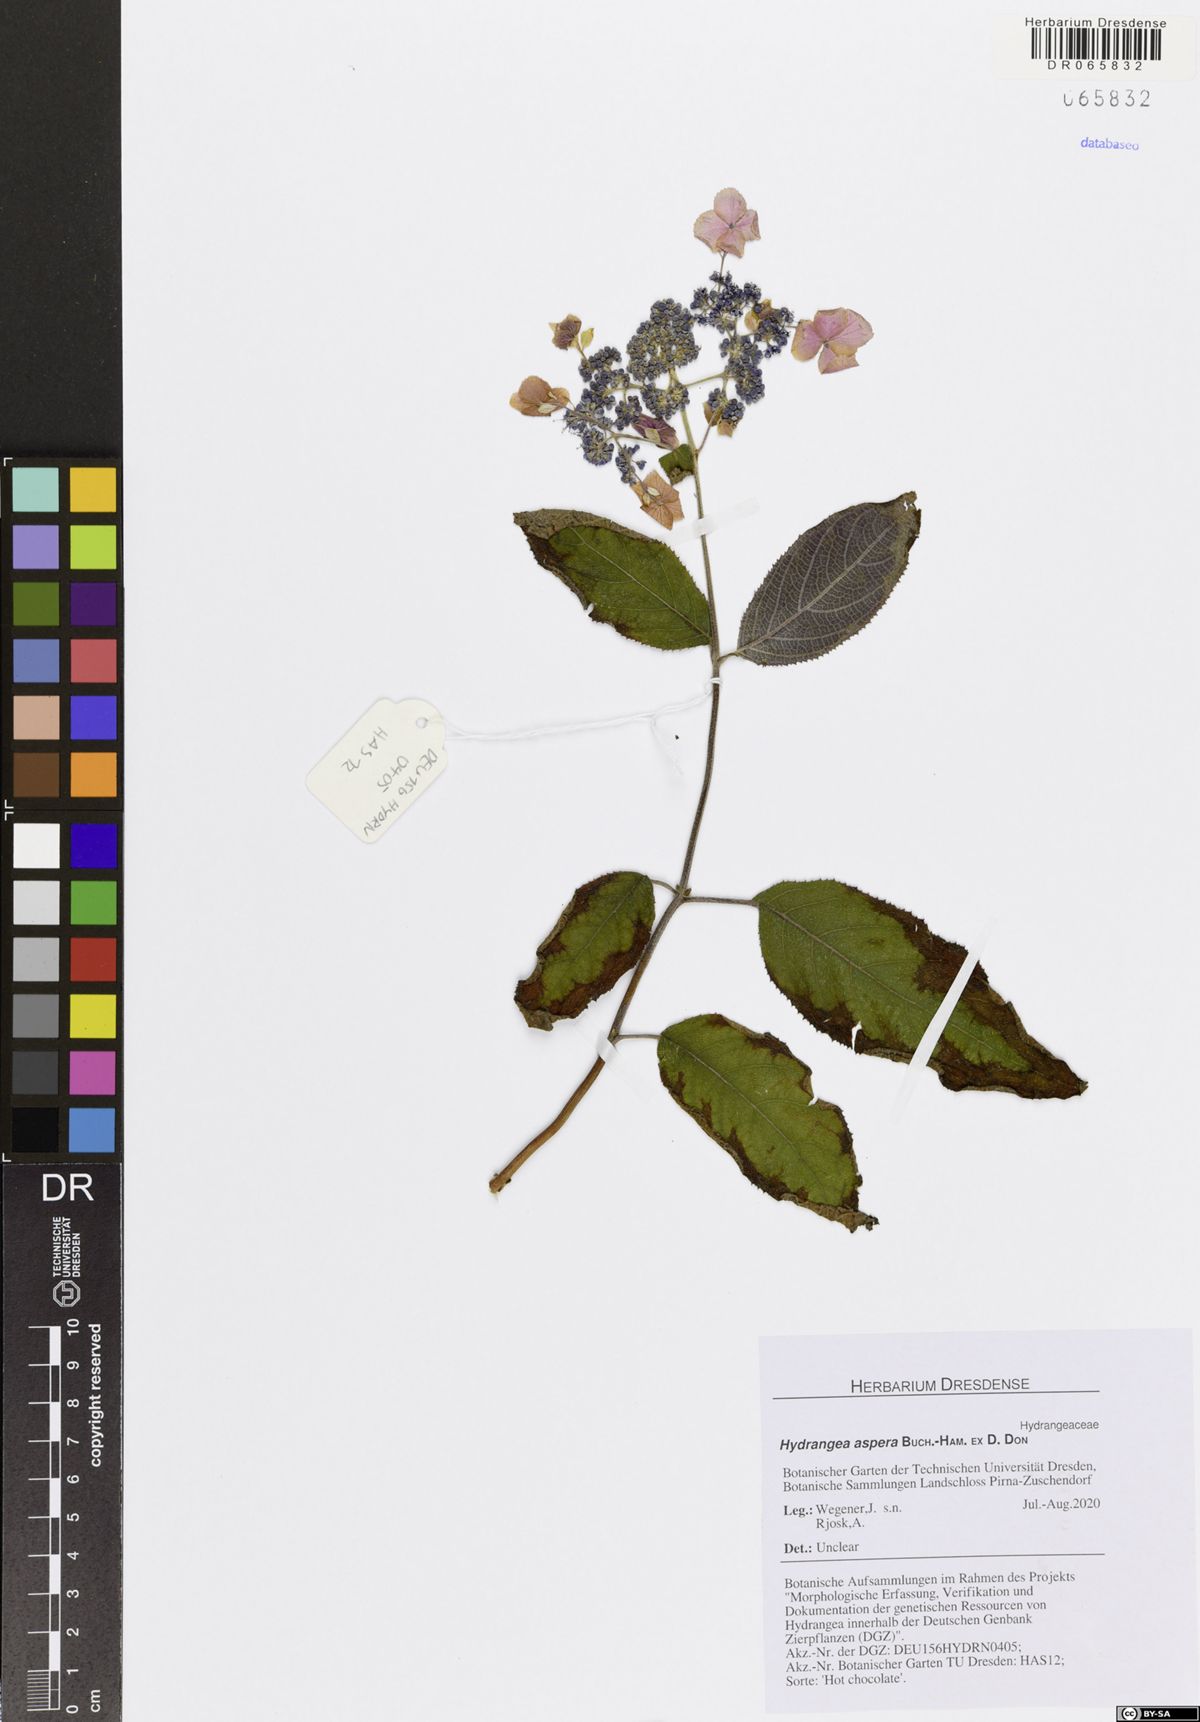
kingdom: Plantae
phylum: Tracheophyta
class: Magnoliopsida
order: Cornales
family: Hydrangeaceae
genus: Hydrangea
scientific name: Hydrangea aspera
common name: Rough-leaf hydrangea
